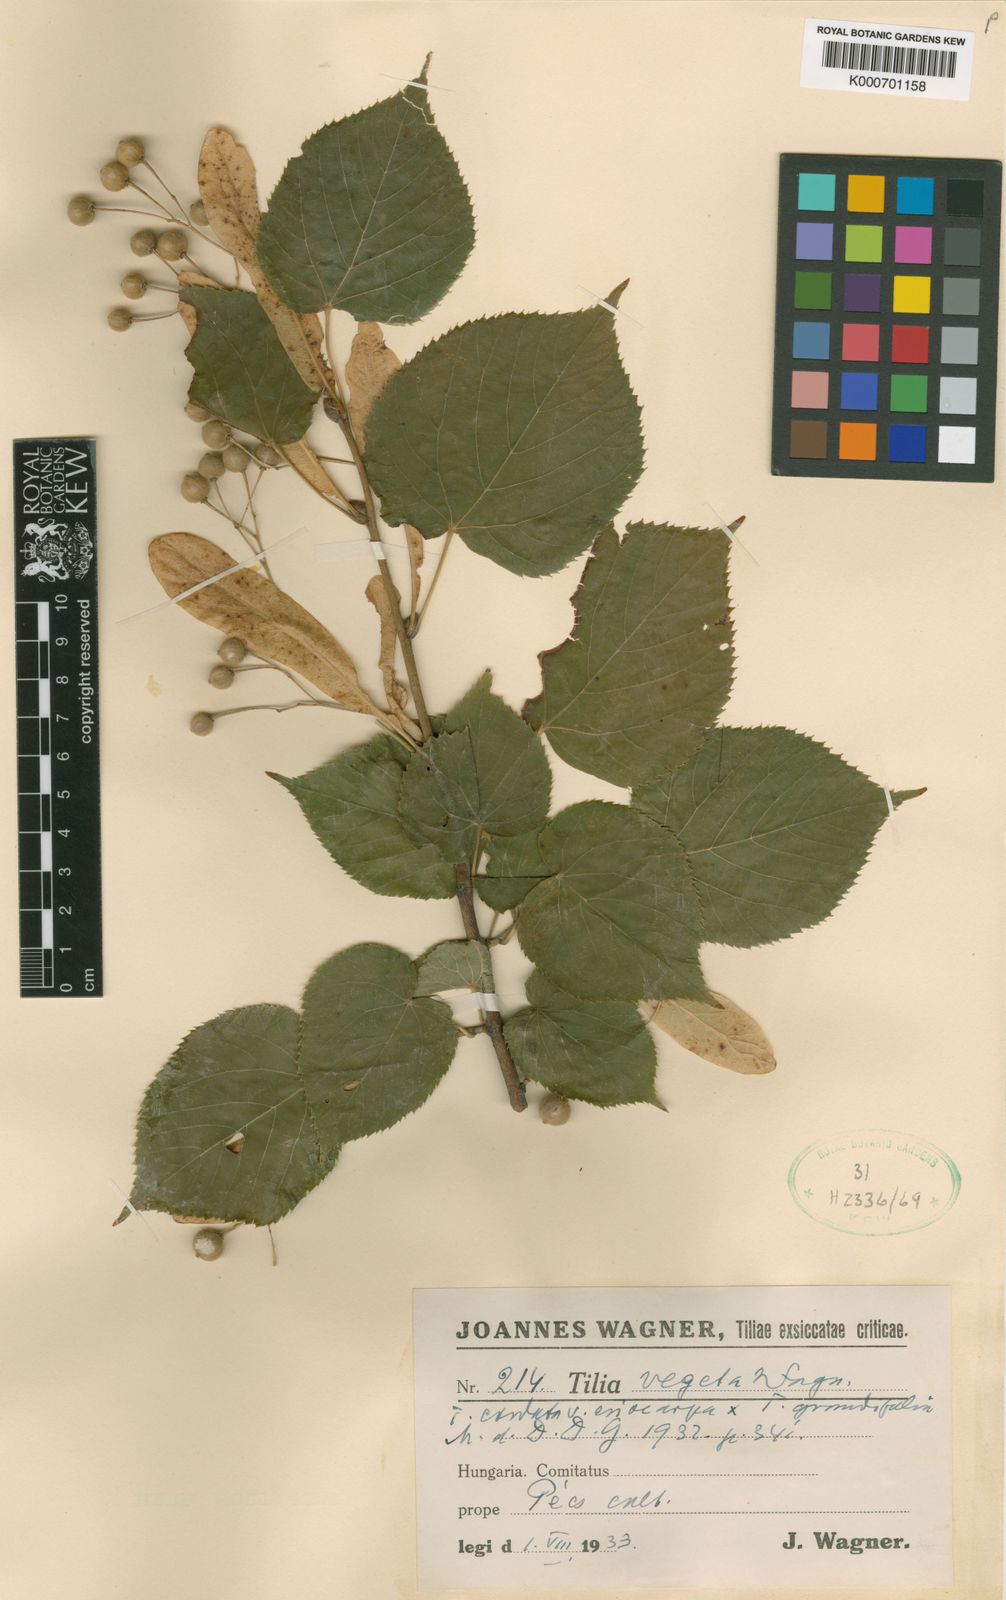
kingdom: Plantae
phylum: Tracheophyta
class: Magnoliopsida
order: Malvales
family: Malvaceae
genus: Tilia
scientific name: Tilia
